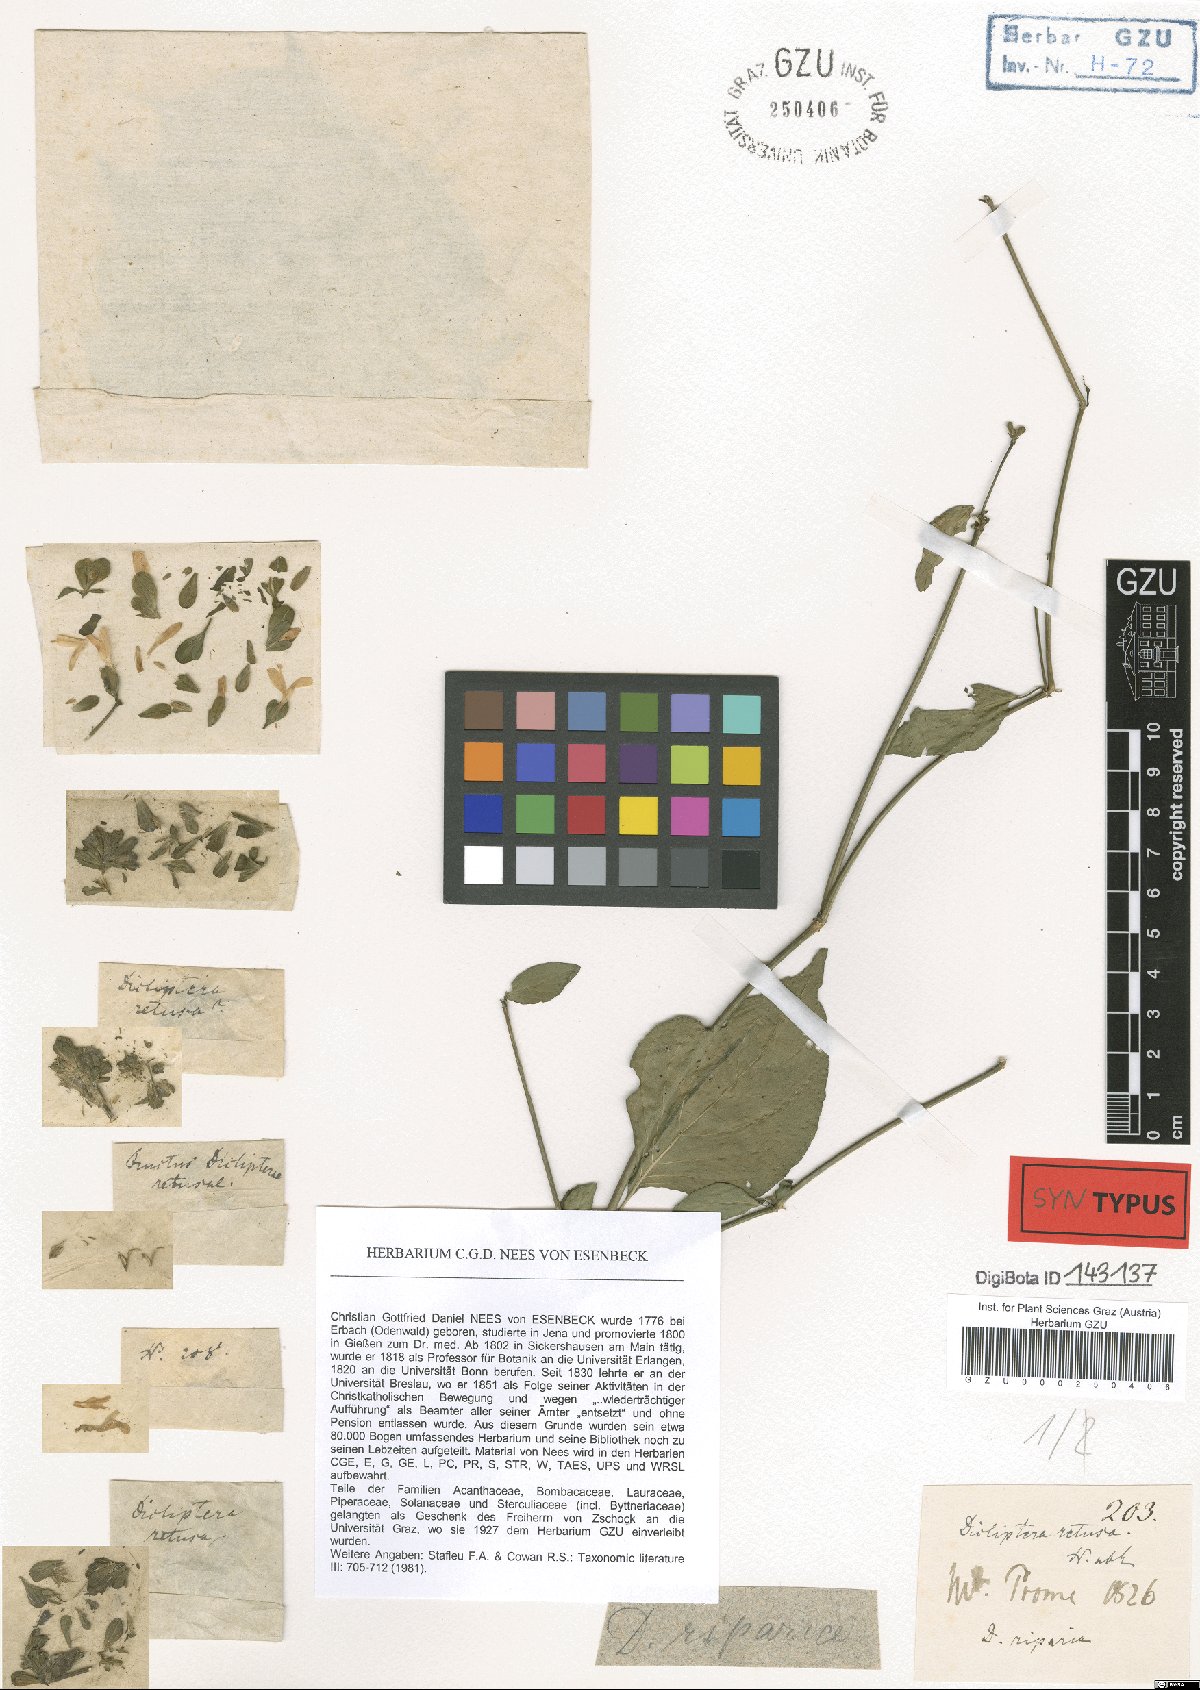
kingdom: Plantae
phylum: Tracheophyta
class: Magnoliopsida
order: Lamiales
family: Acanthaceae
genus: Dicliptera
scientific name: Dicliptera riparia
